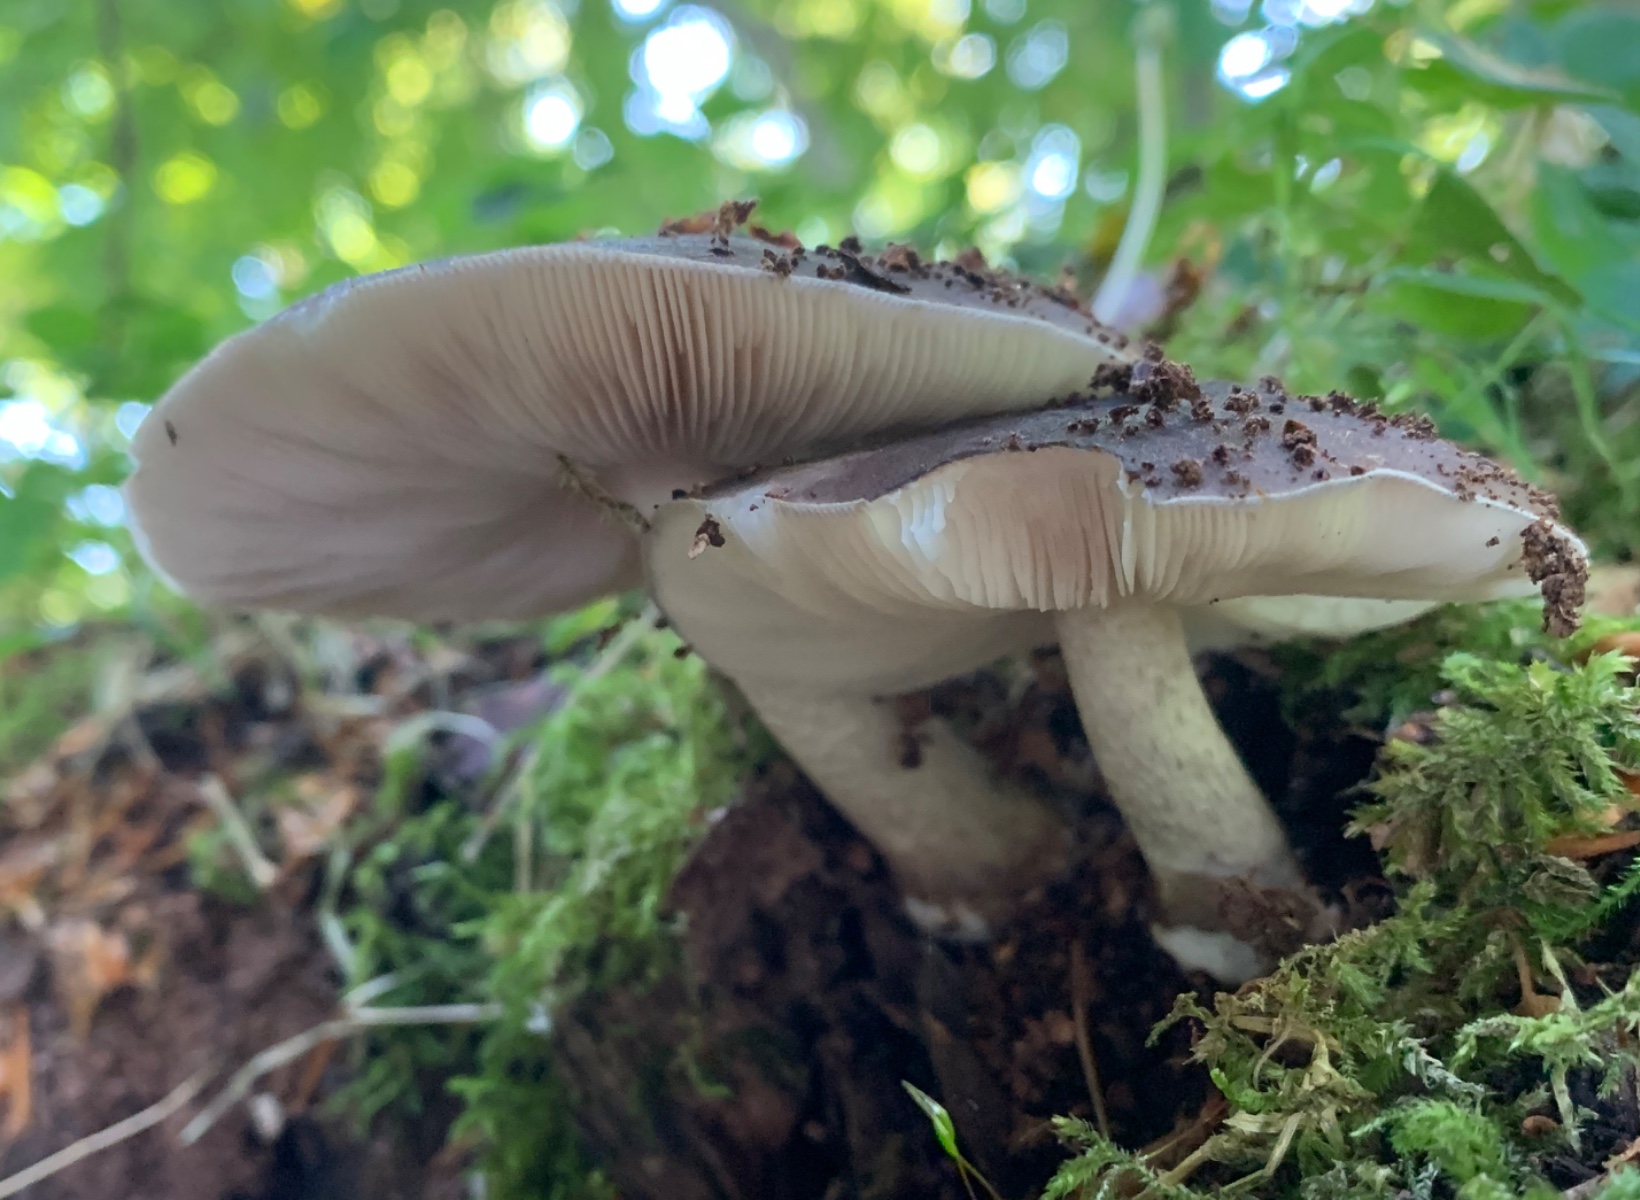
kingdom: Fungi
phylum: Basidiomycota
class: Agaricomycetes
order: Agaricales
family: Pluteaceae
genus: Pluteus
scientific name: Pluteus cervinus
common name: sodfarvet skærmhat
